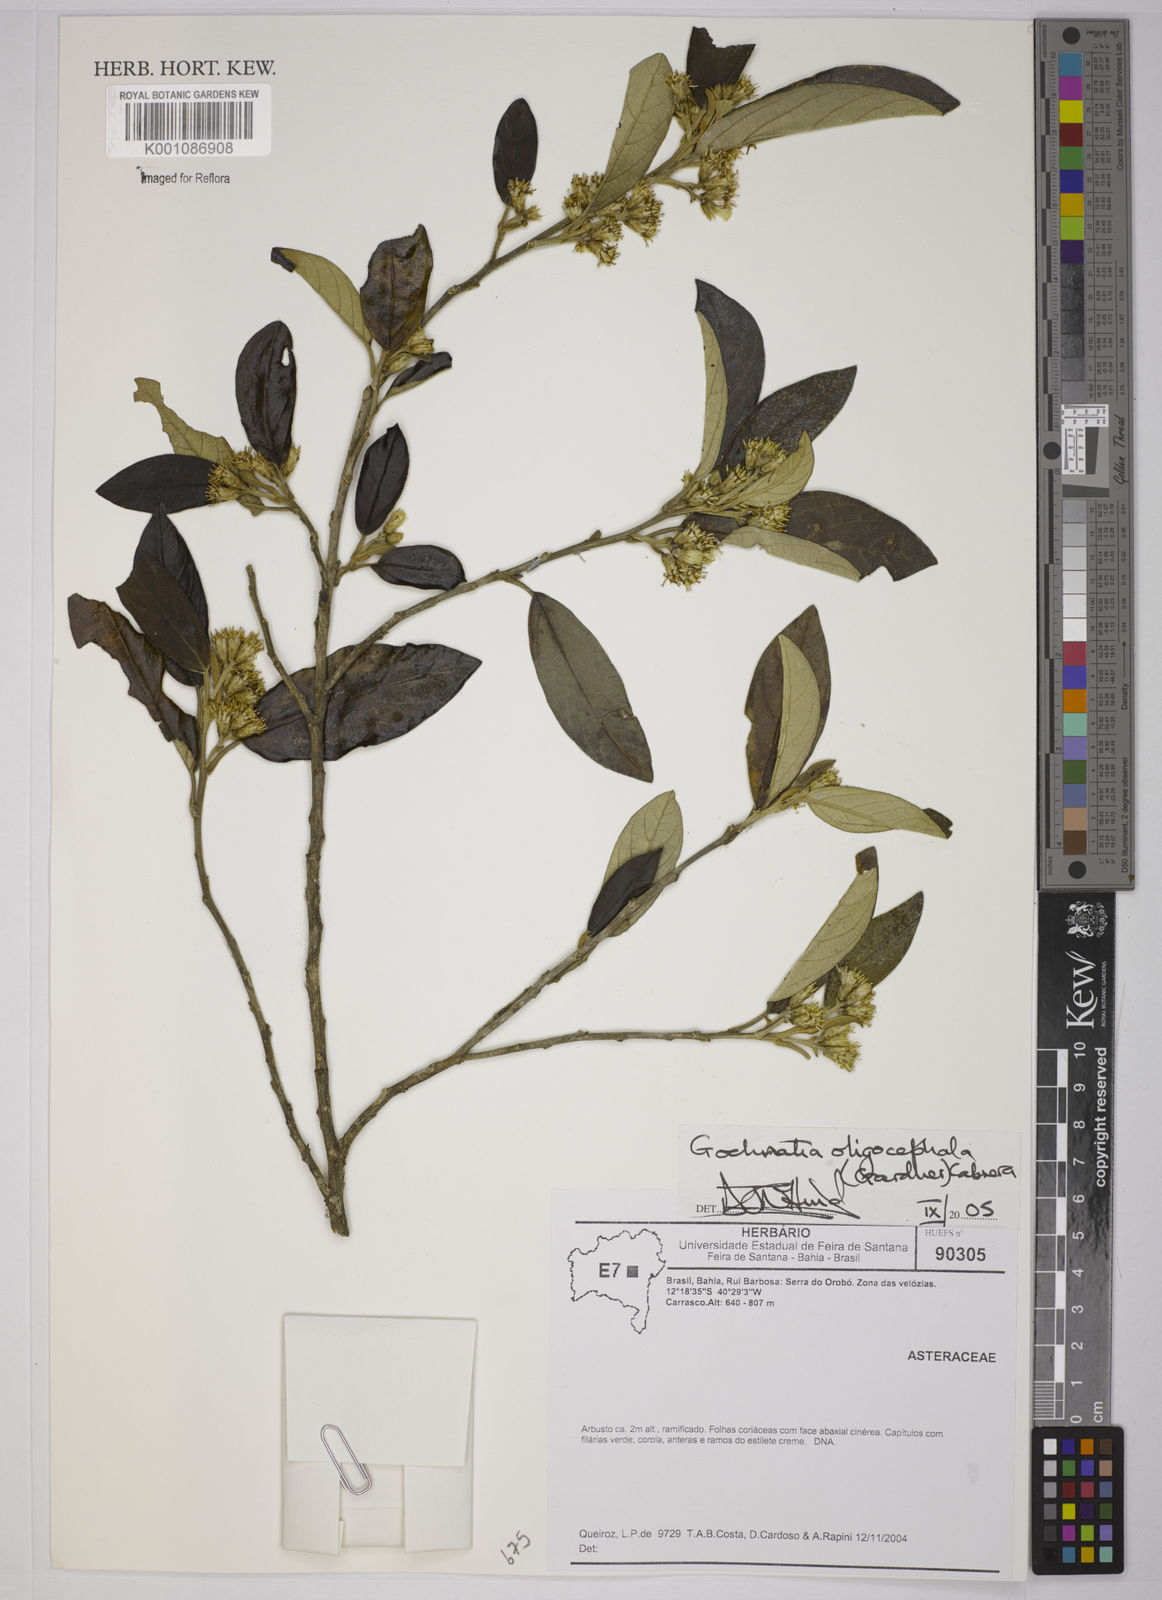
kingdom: Plantae
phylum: Tracheophyta
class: Magnoliopsida
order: Asterales
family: Asteraceae
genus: Moquiniastrum
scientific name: Moquiniastrum oligocephalum
